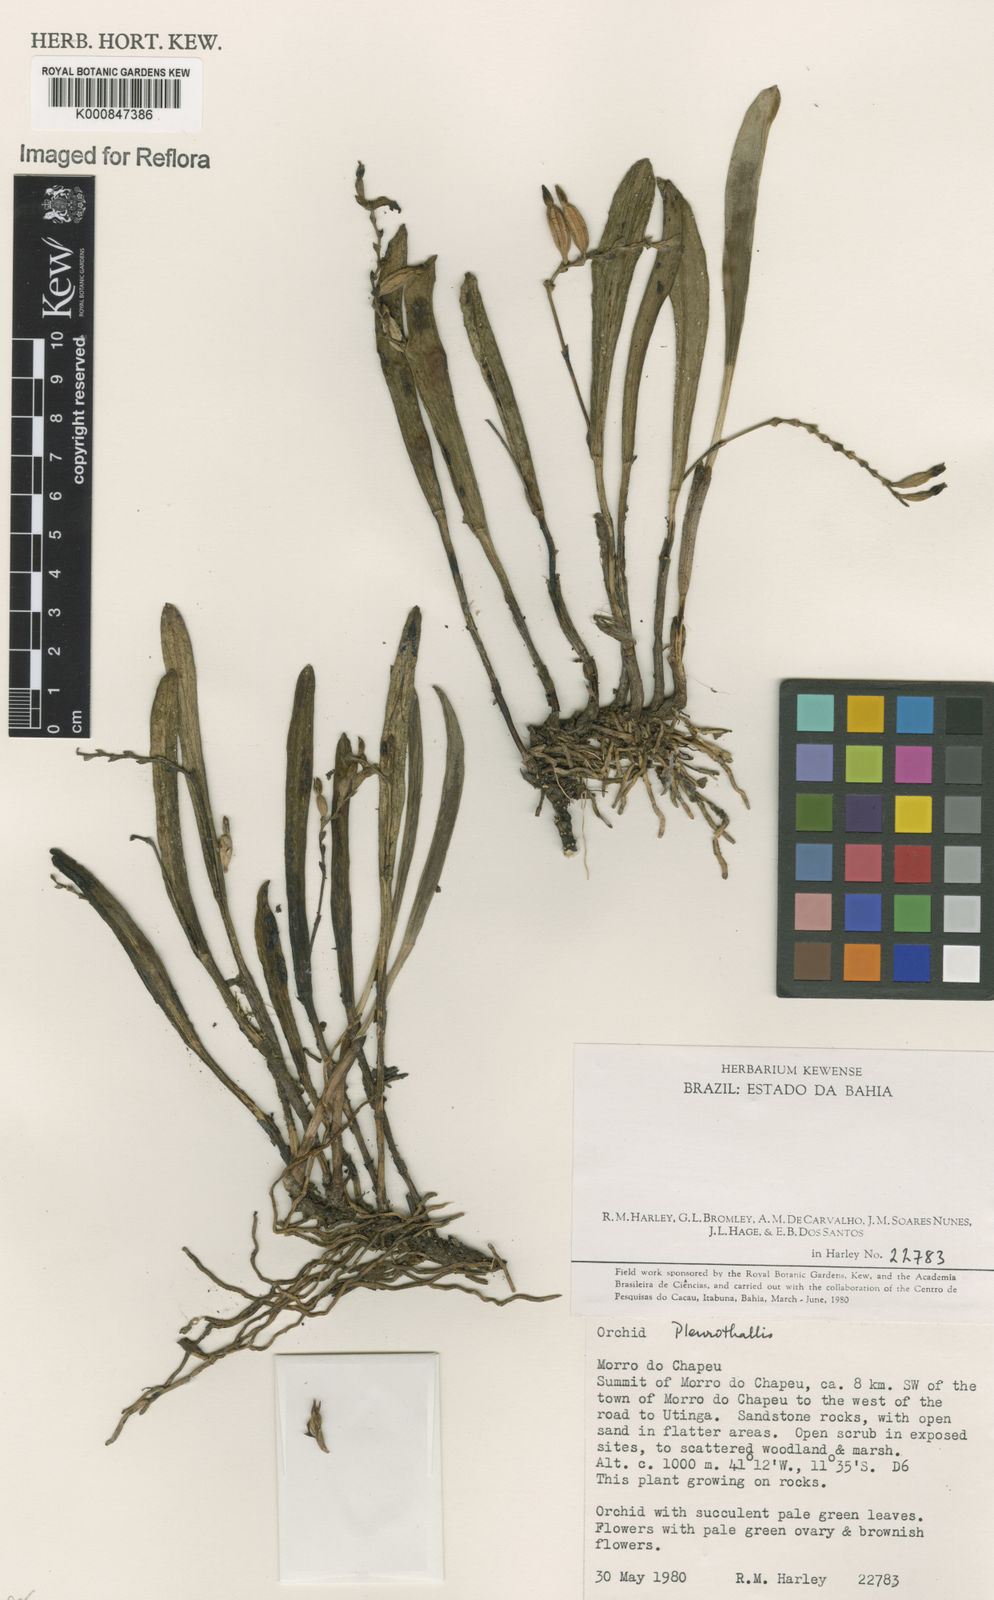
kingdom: Plantae
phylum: Tracheophyta
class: Liliopsida
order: Asparagales
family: Orchidaceae
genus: Acianthera
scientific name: Acianthera
